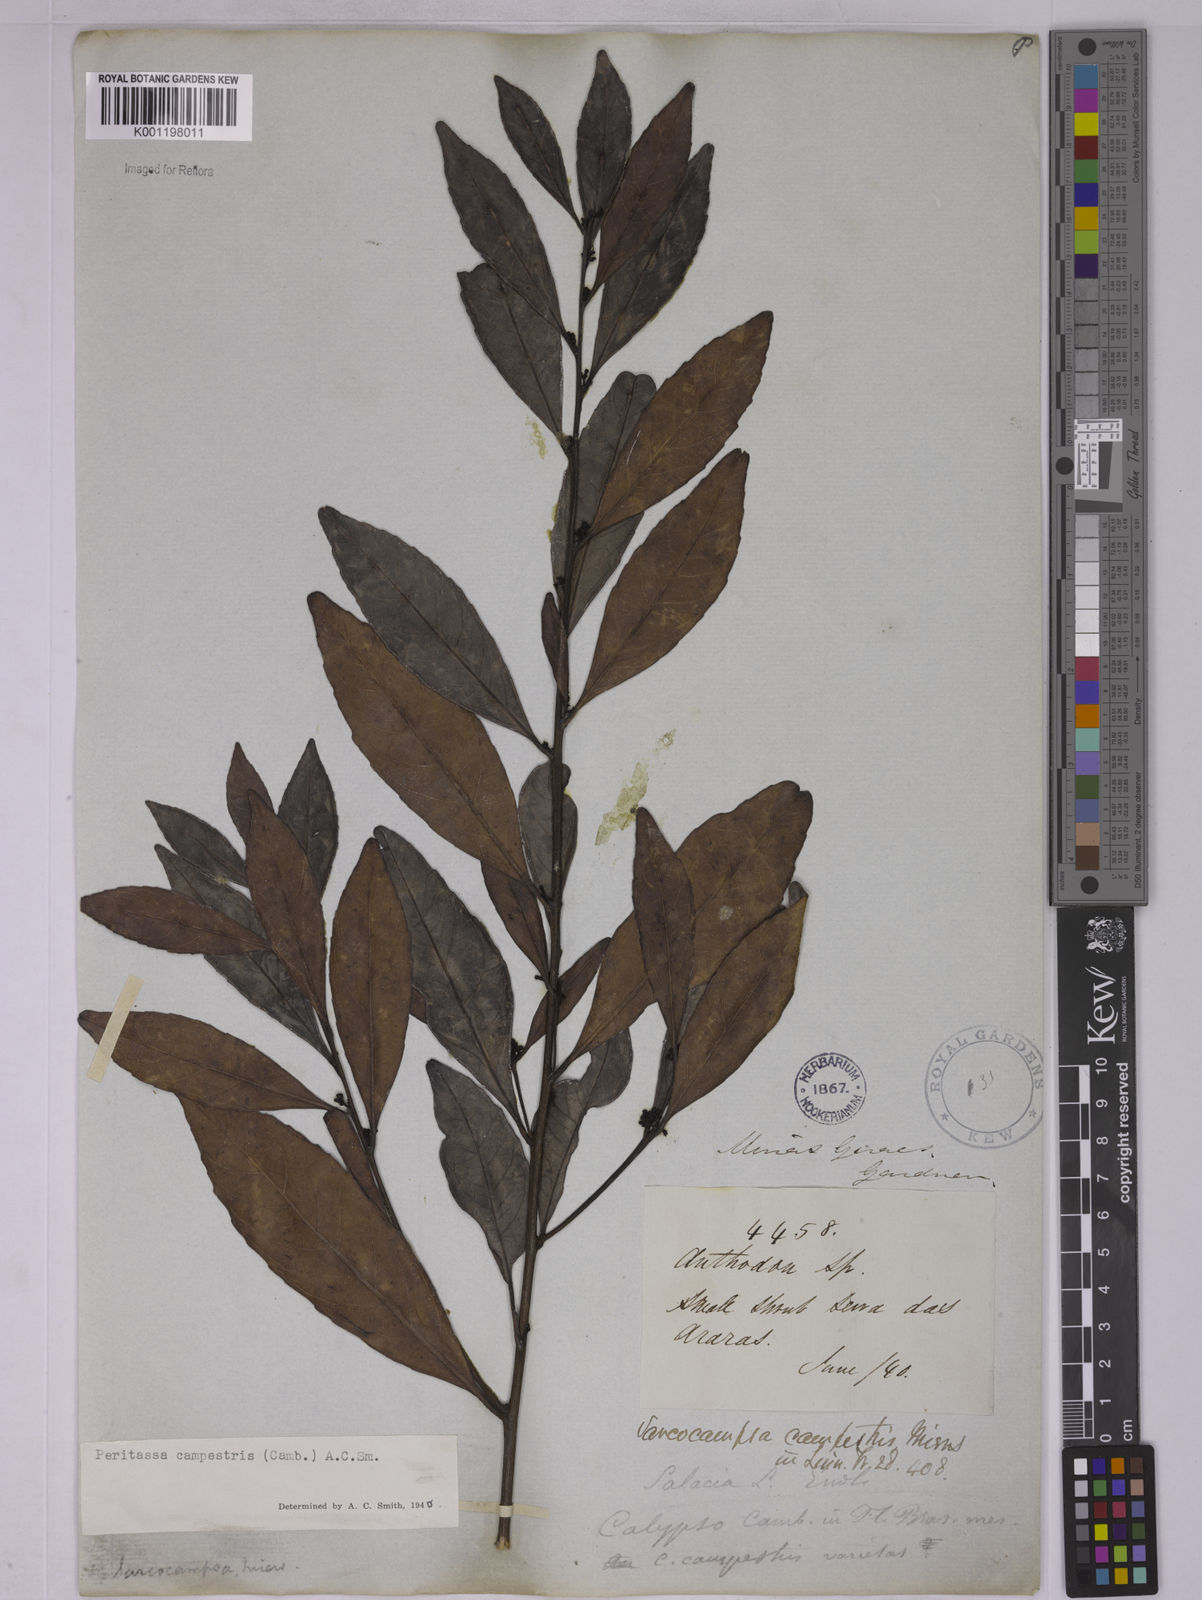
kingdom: Plantae
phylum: Tracheophyta
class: Magnoliopsida
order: Celastrales
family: Celastraceae
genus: Peritassa
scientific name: Peritassa campestris
